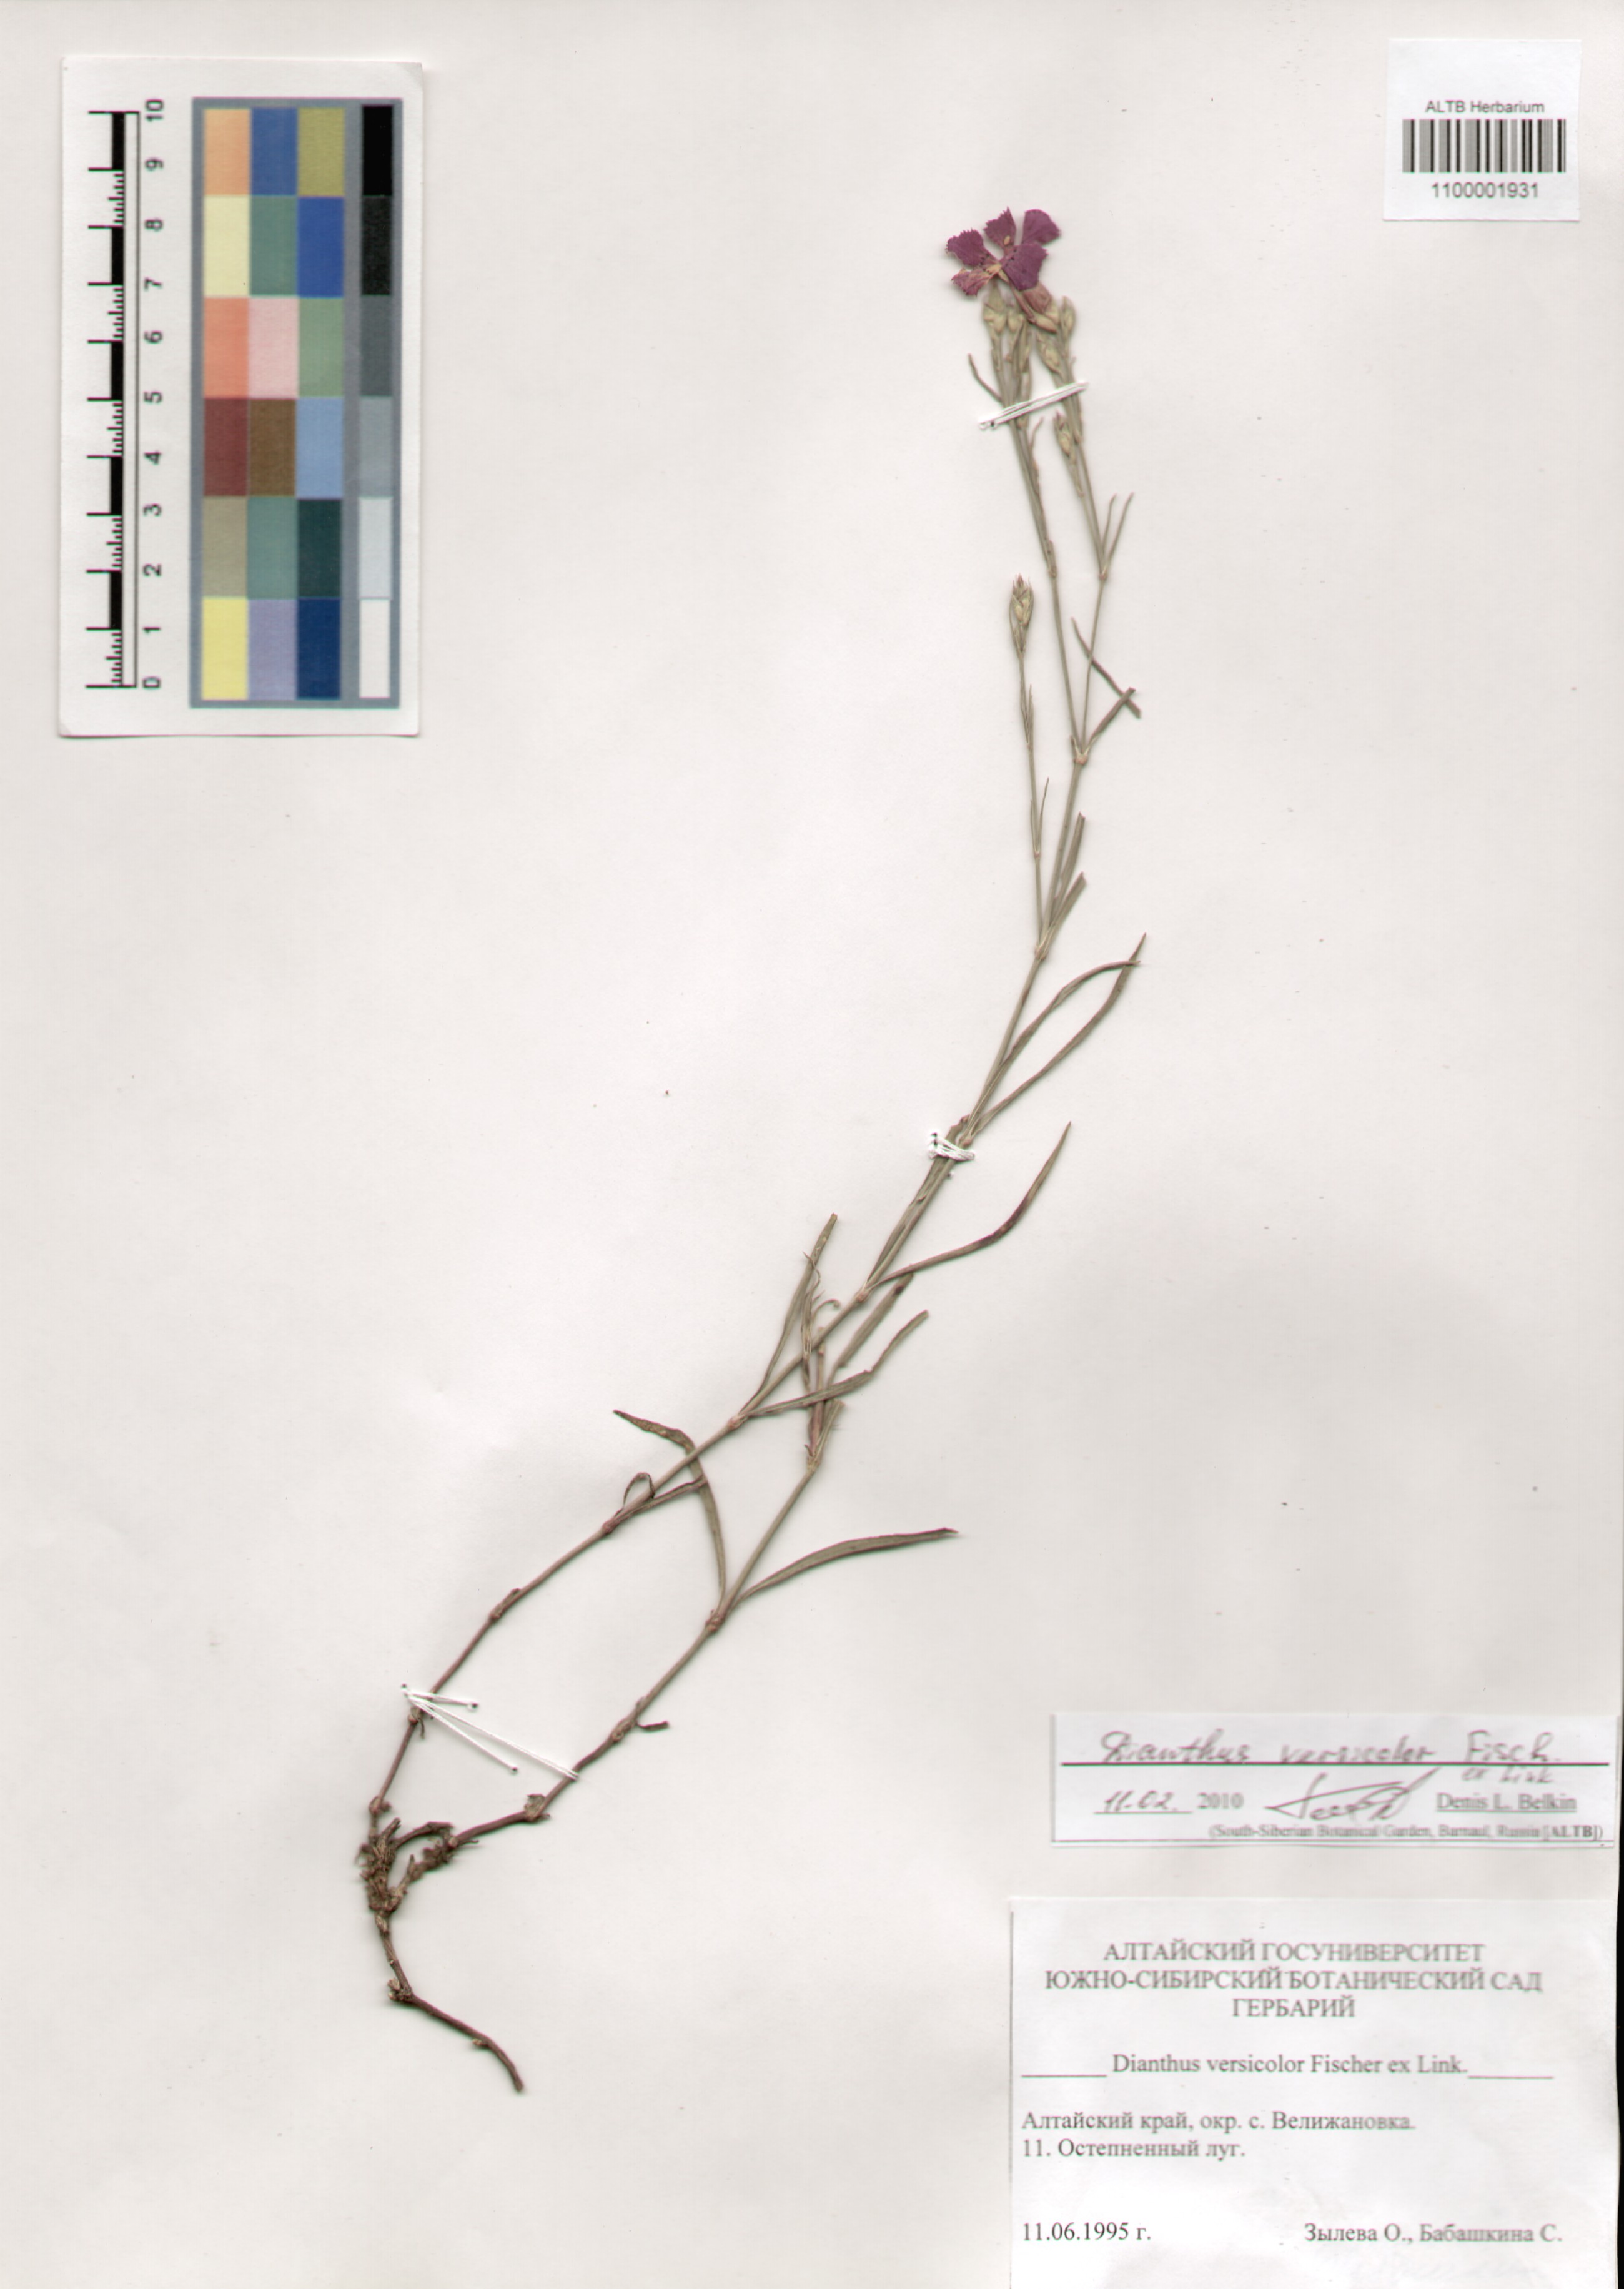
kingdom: Plantae
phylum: Tracheophyta
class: Magnoliopsida
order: Caryophyllales
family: Caryophyllaceae
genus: Dianthus
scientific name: Dianthus chinensis
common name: Rainbow pink
